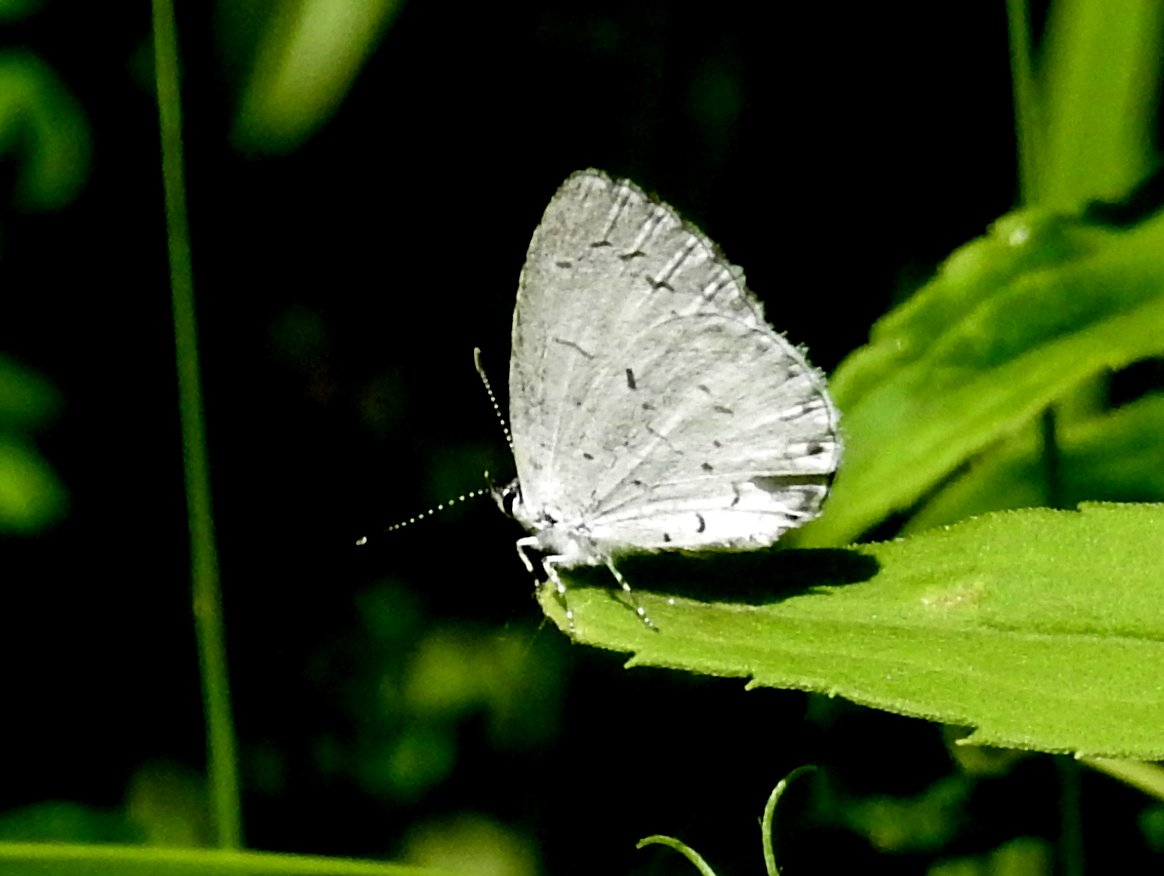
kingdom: Animalia
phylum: Arthropoda
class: Insecta
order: Lepidoptera
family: Lycaenidae
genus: Celastrina
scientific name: Celastrina
